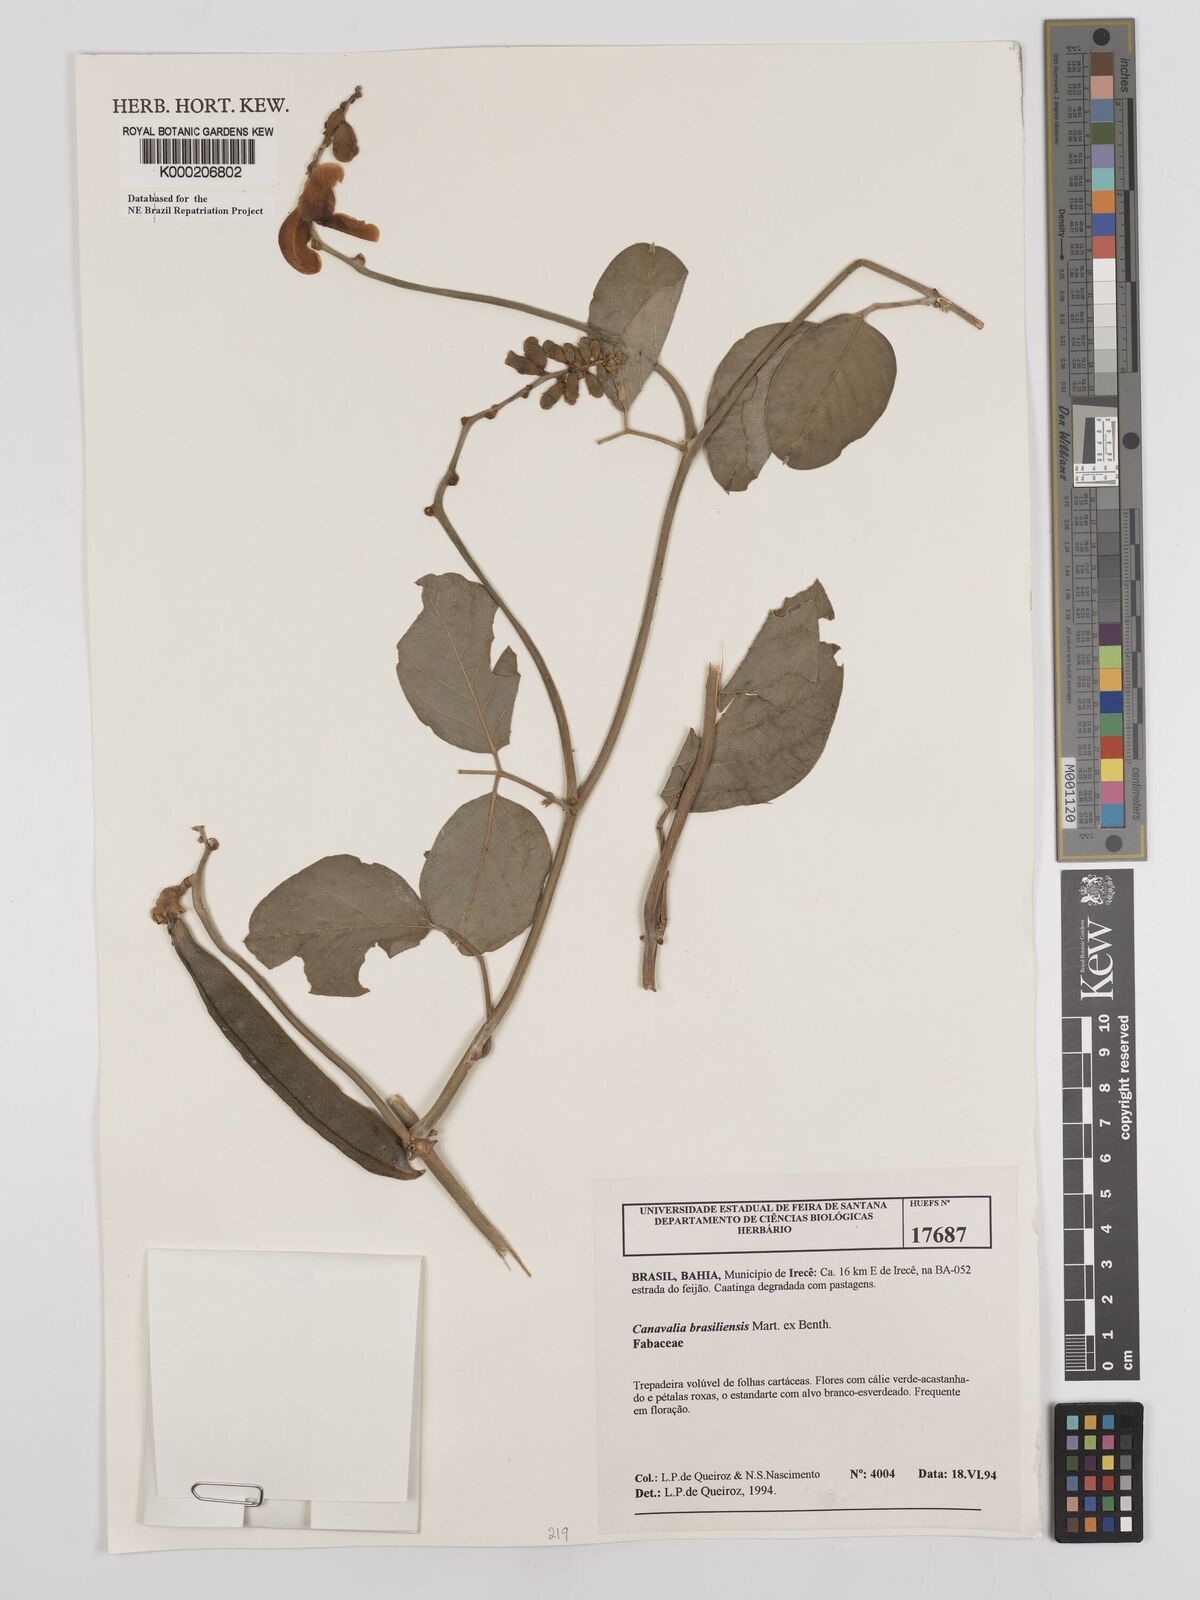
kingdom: Plantae
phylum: Tracheophyta
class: Magnoliopsida
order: Fabales
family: Fabaceae
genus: Canavalia
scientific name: Canavalia brasiliensis
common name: Barbicou-bean
